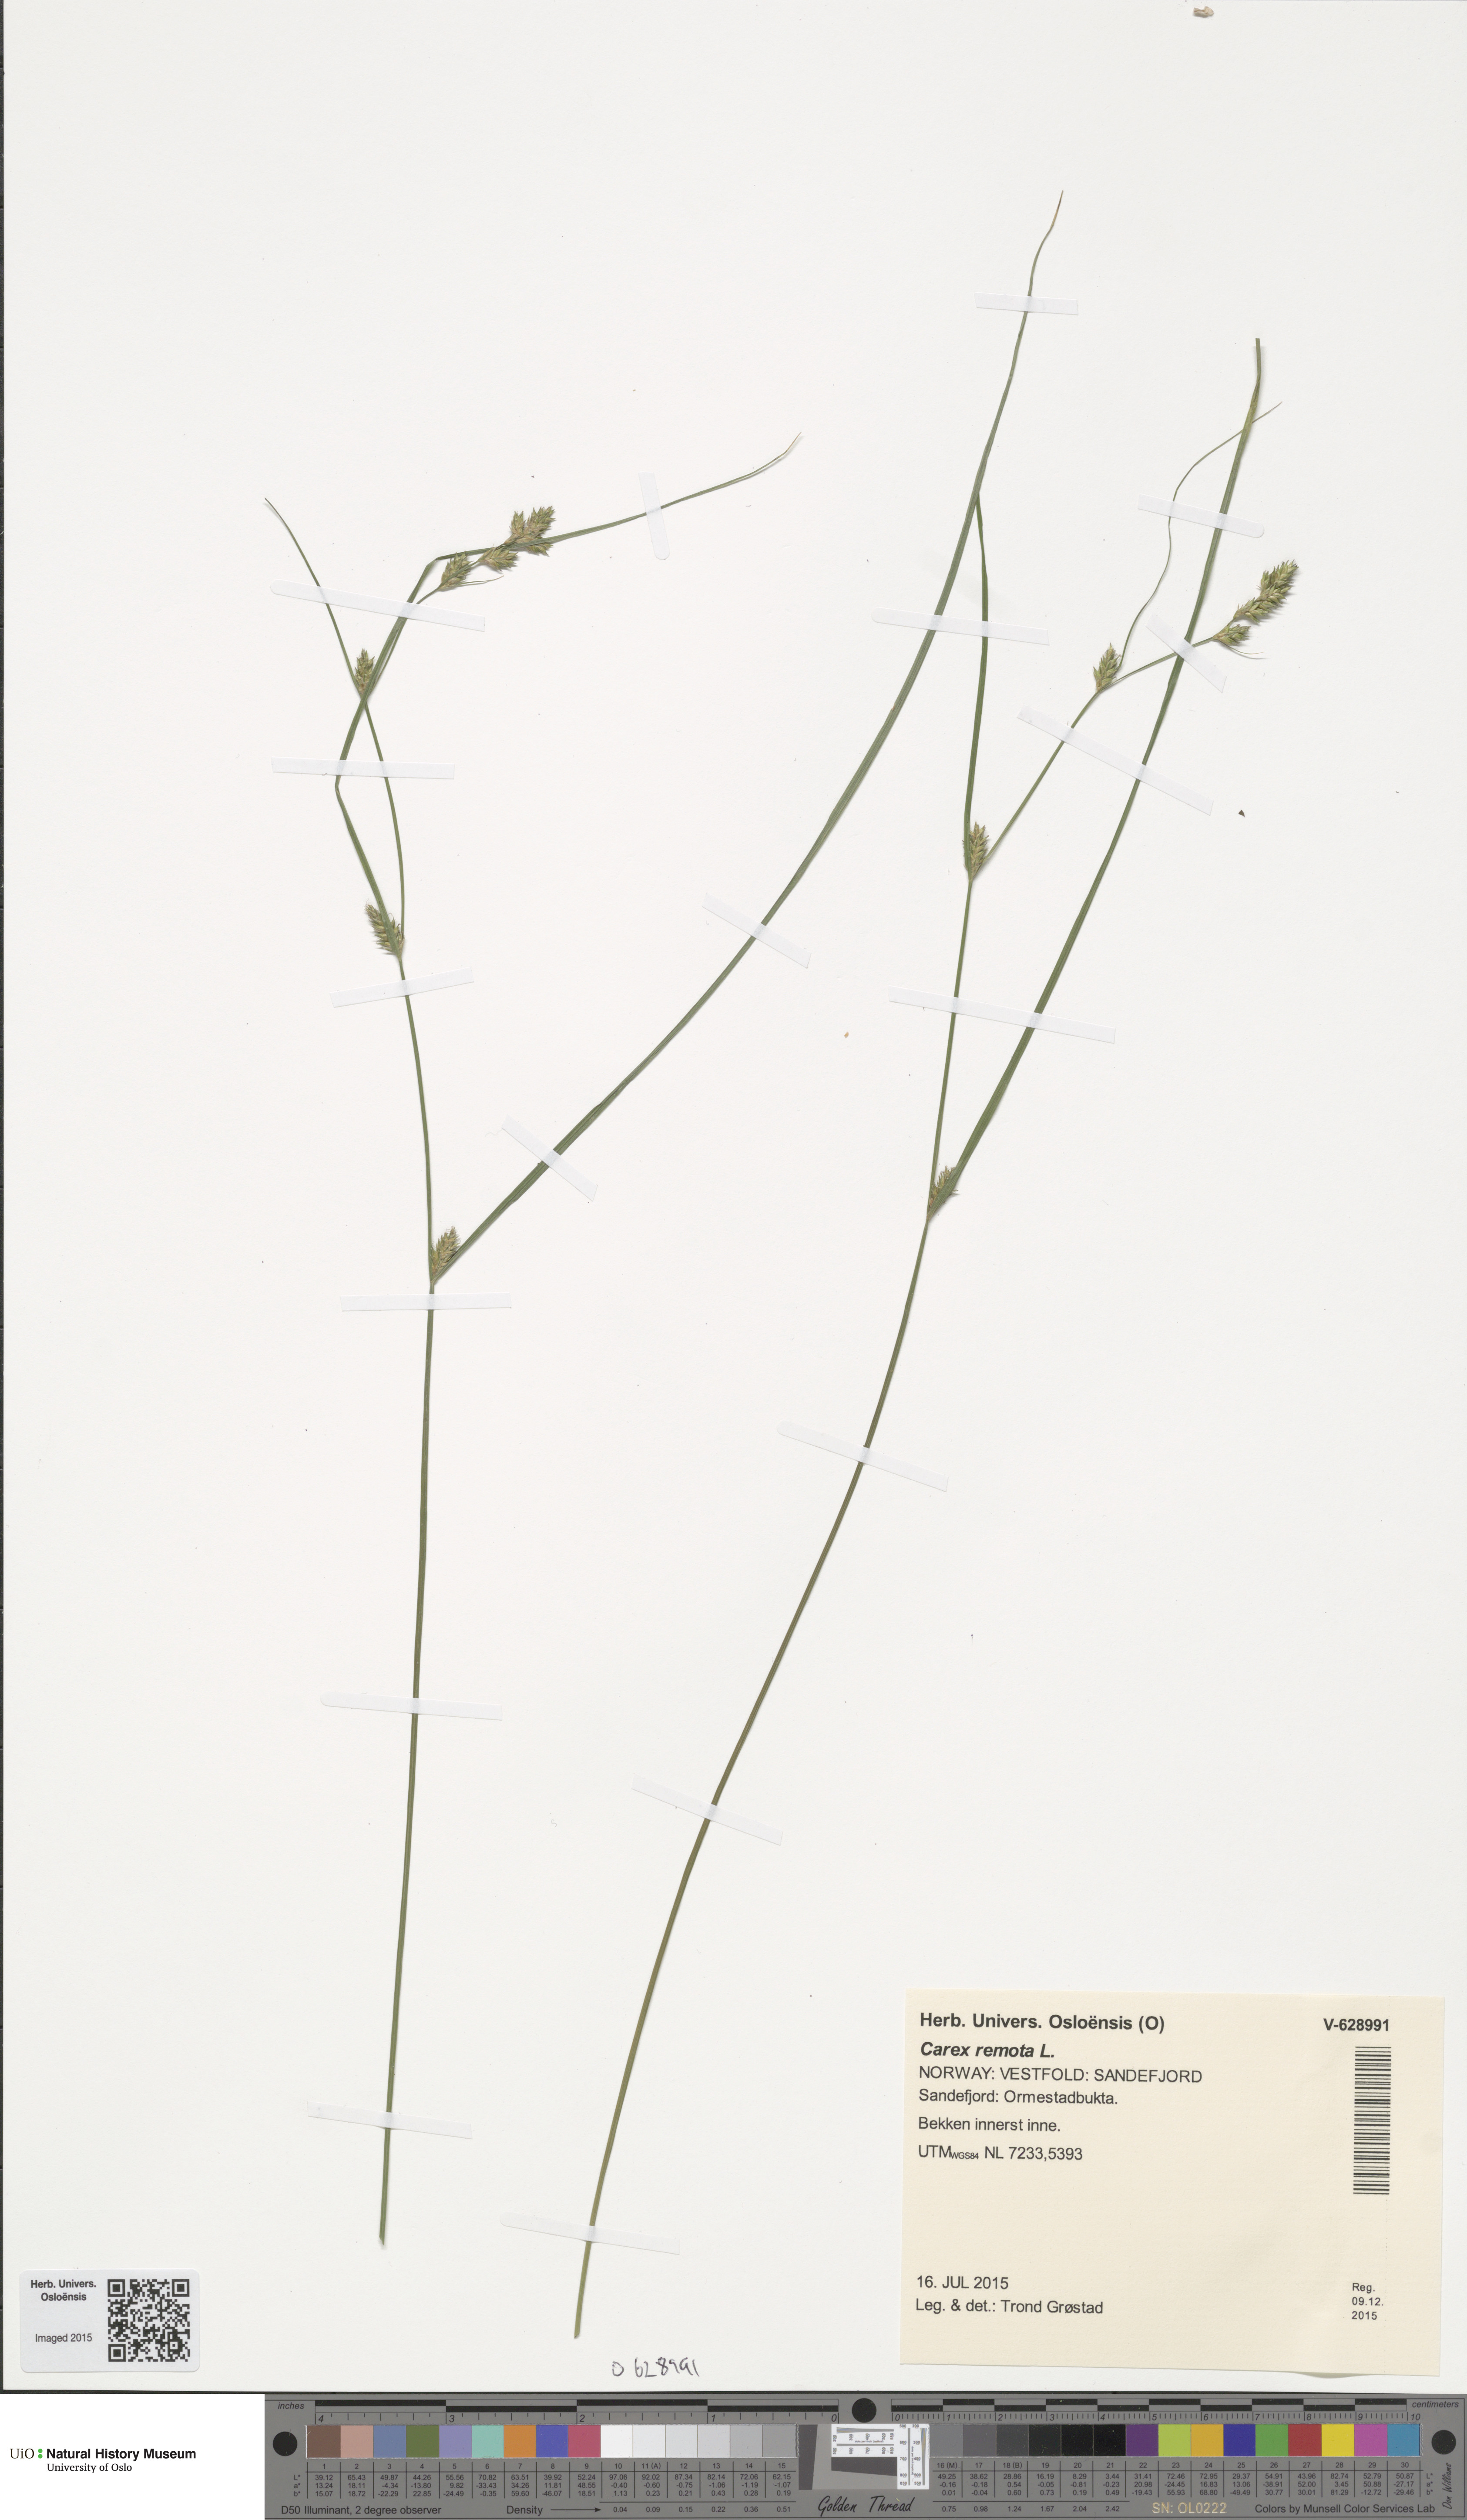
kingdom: Plantae
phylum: Tracheophyta
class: Liliopsida
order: Poales
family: Cyperaceae
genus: Carex
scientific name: Carex remota
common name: Remote sedge
